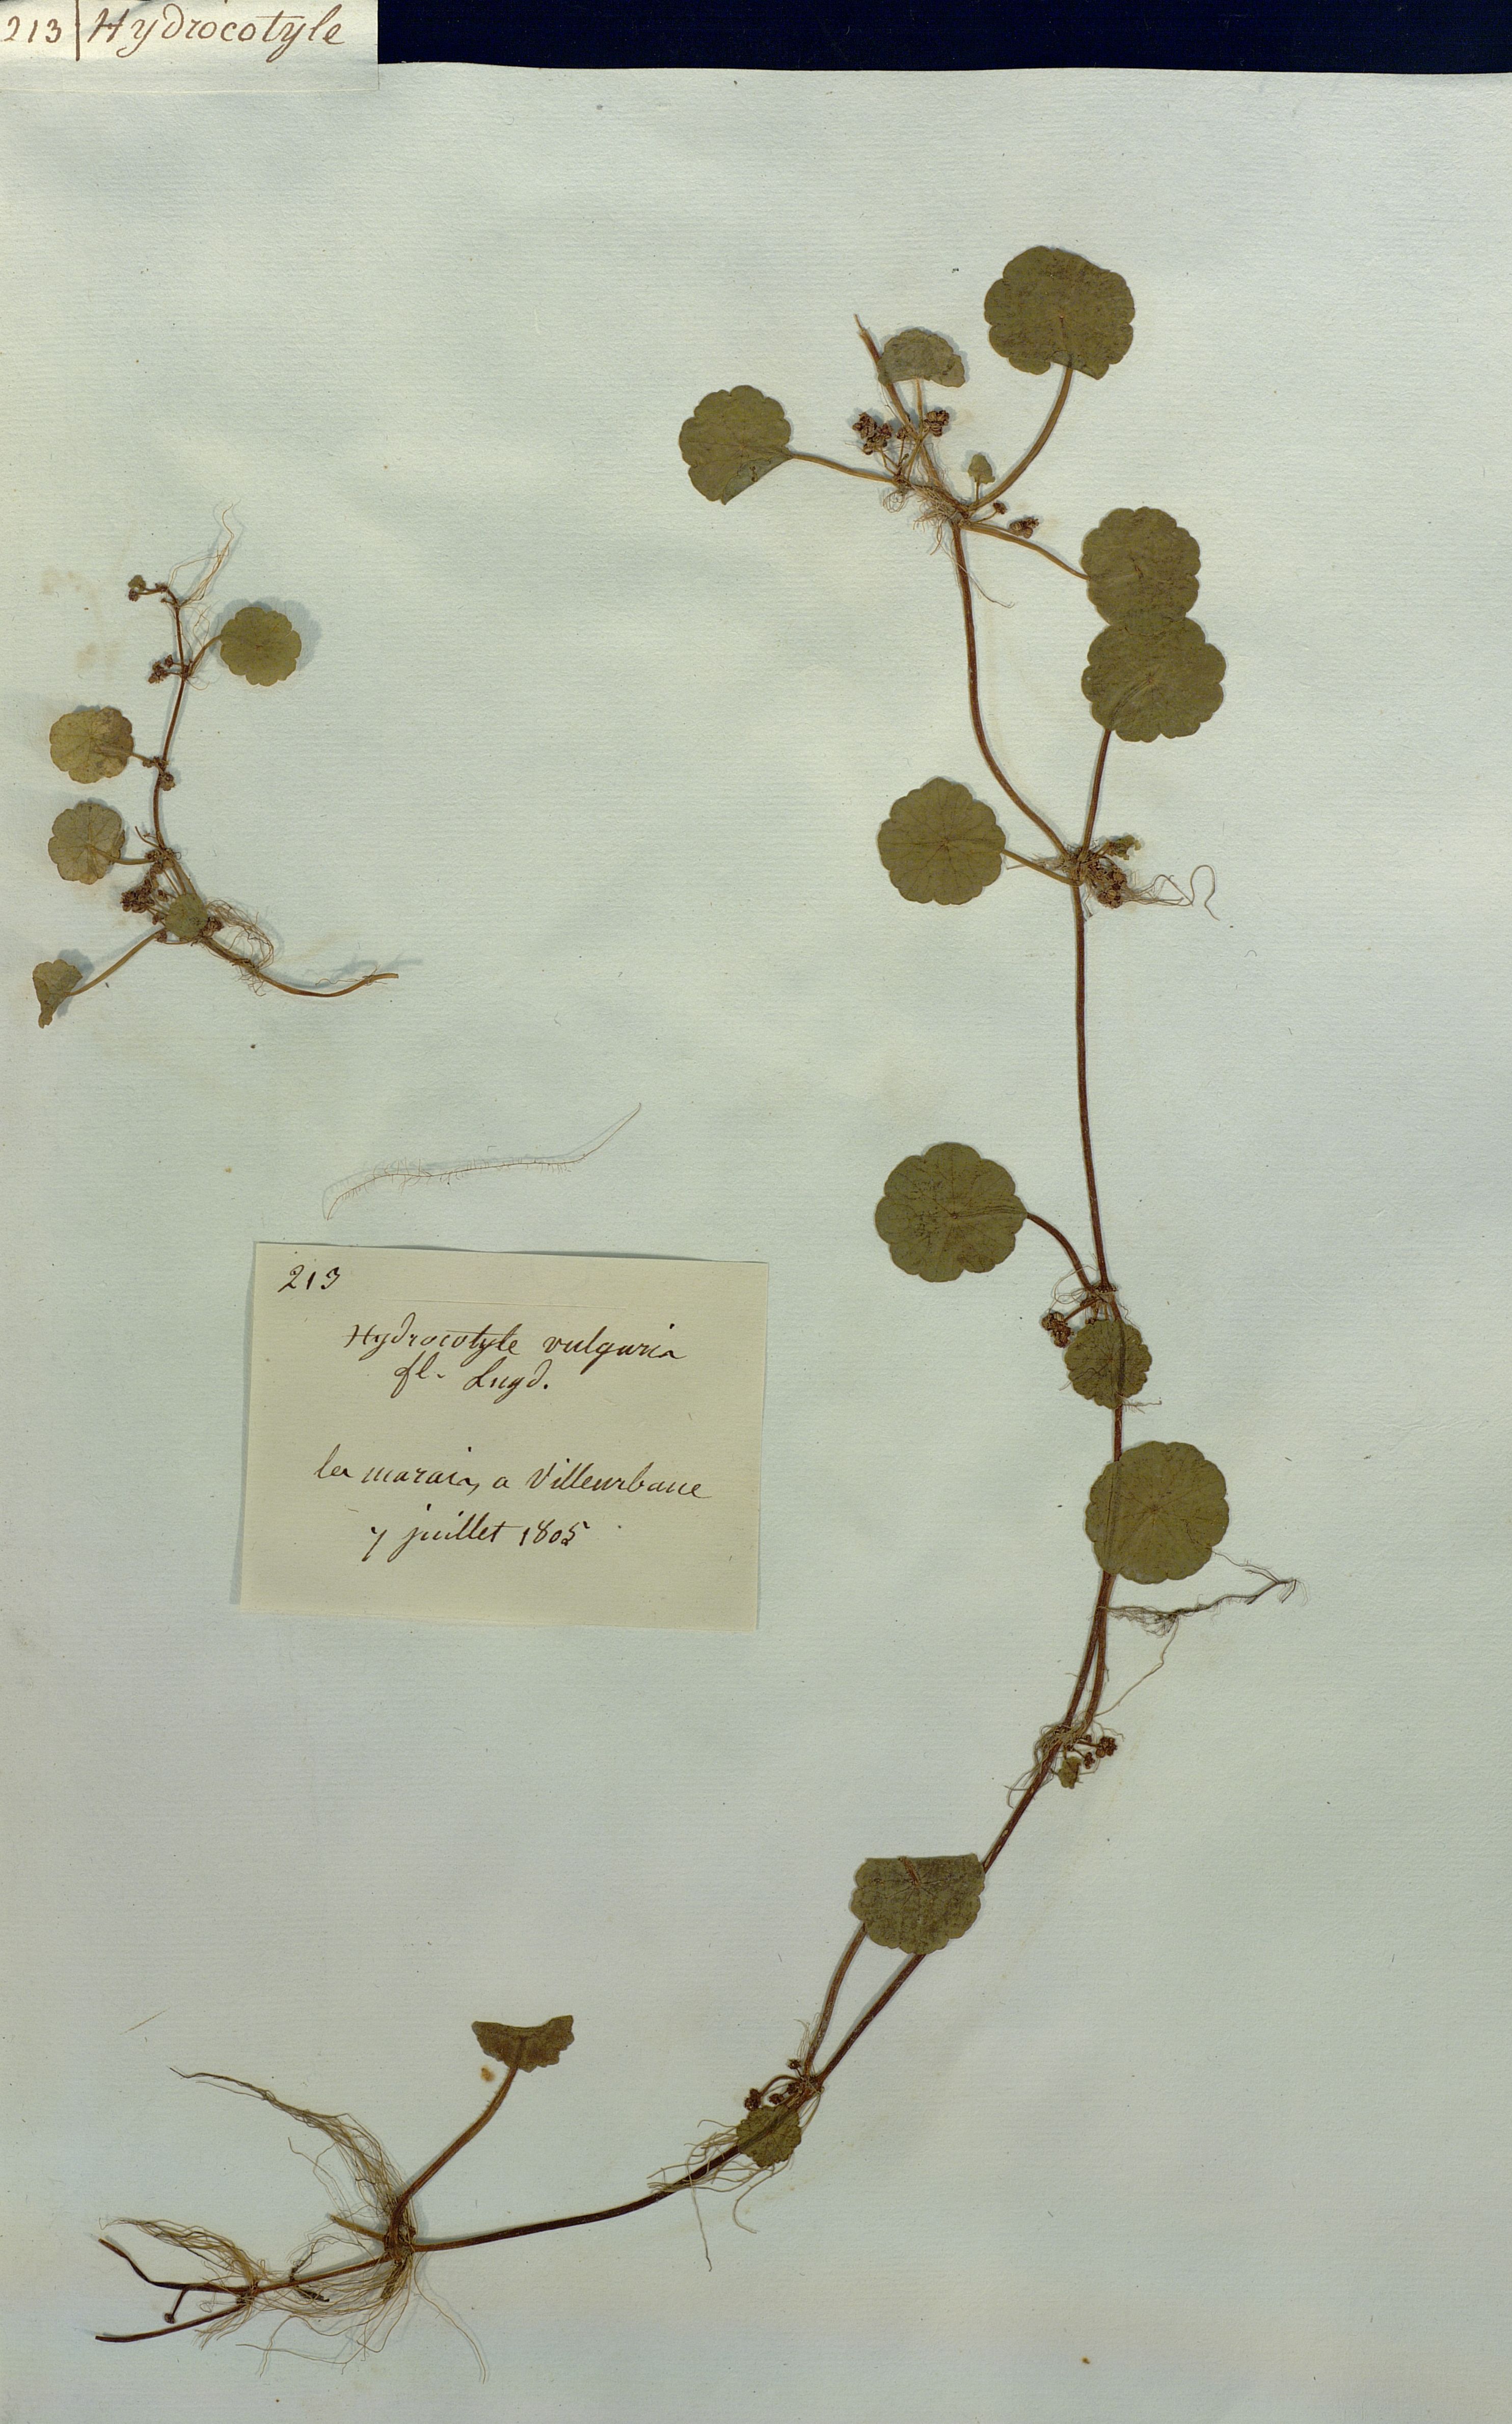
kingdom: Plantae
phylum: Tracheophyta
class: Magnoliopsida
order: Apiales
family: Araliaceae
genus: Hydrocotyle
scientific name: Hydrocotyle vulgaris
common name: Marsh pennywort
